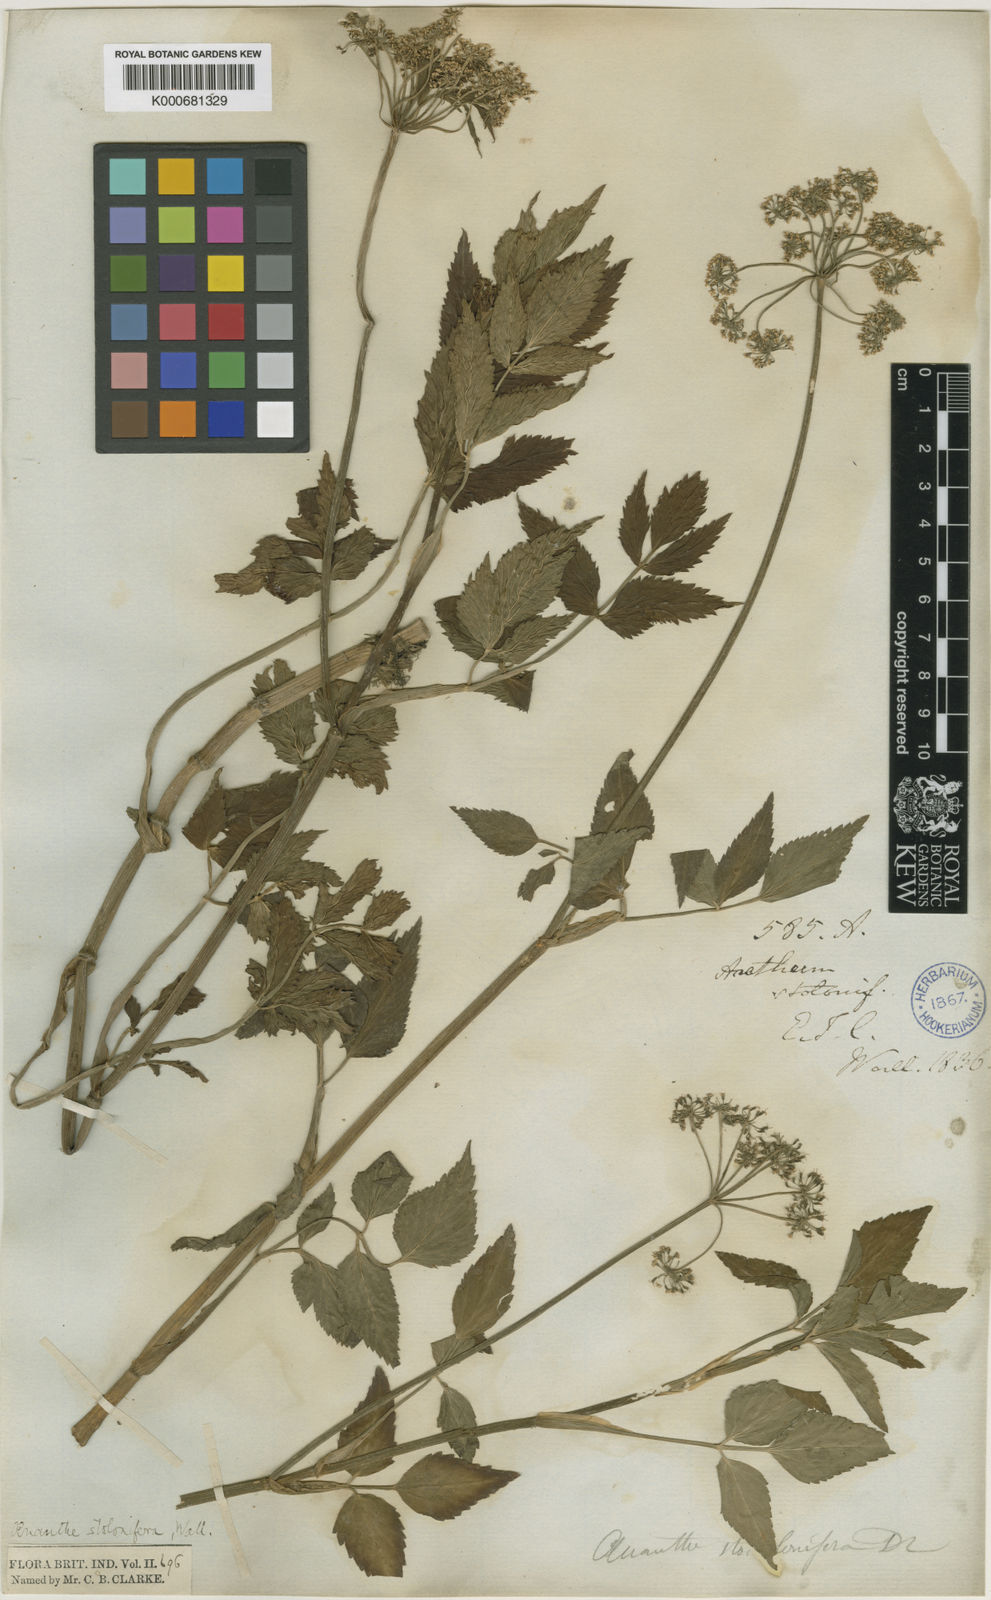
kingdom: Plantae
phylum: Tracheophyta
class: Magnoliopsida
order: Apiales
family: Apiaceae
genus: Oenanthe
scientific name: Oenanthe
